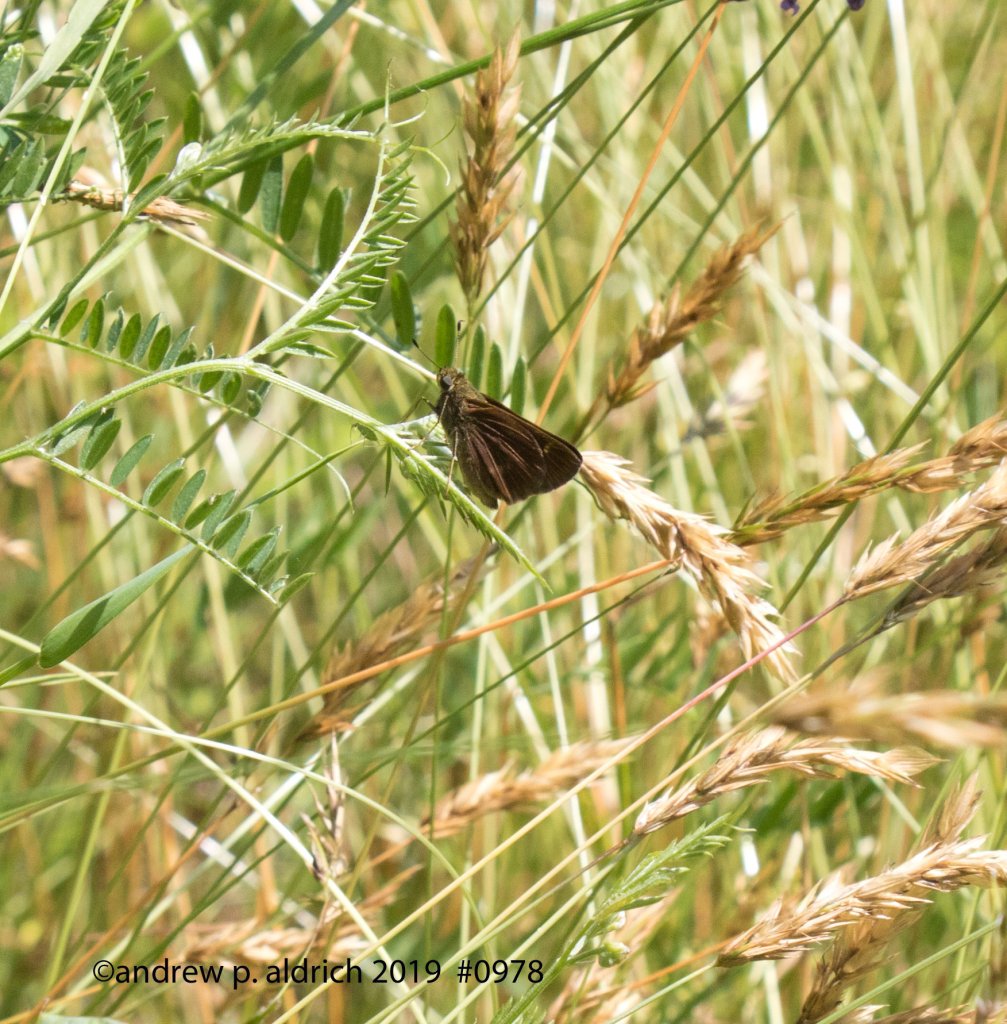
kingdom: Animalia
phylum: Arthropoda
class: Insecta
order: Lepidoptera
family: Hesperiidae
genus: Euphyes
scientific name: Euphyes vestris
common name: Dun Skipper
